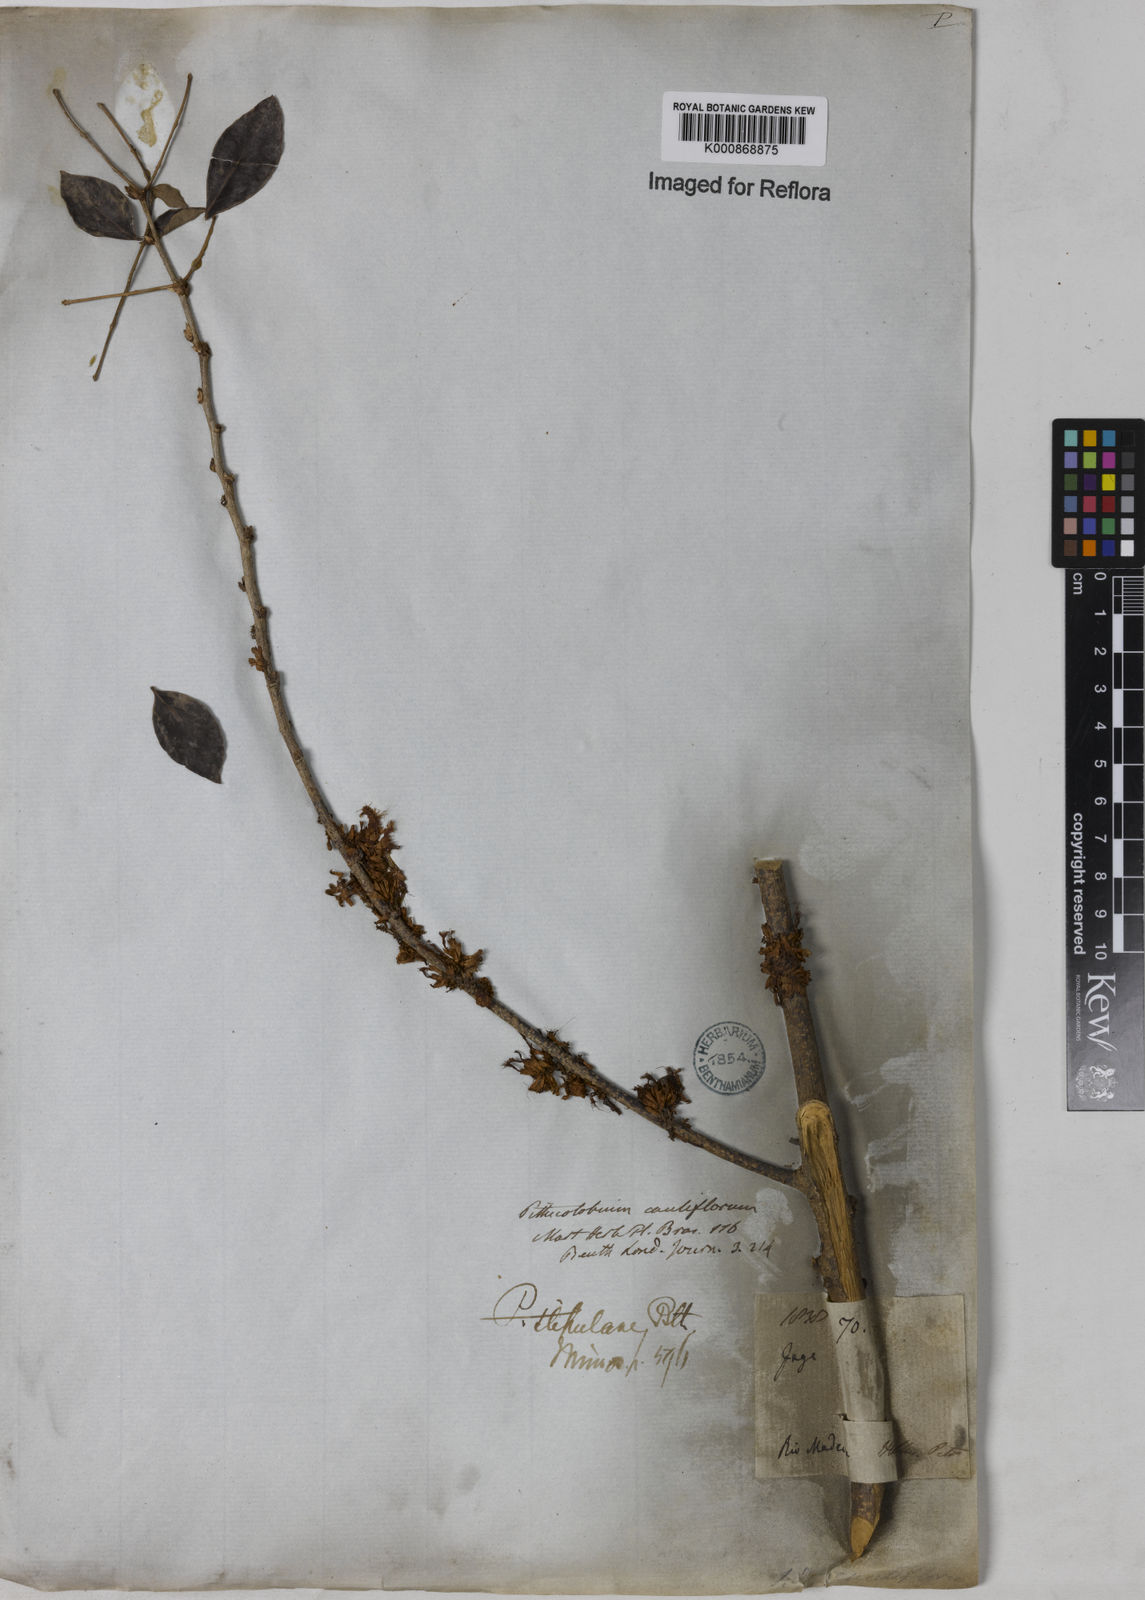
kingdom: Plantae
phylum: Tracheophyta
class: Magnoliopsida
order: Fabales
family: Fabaceae
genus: Zygia
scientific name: Zygia cauliflora
